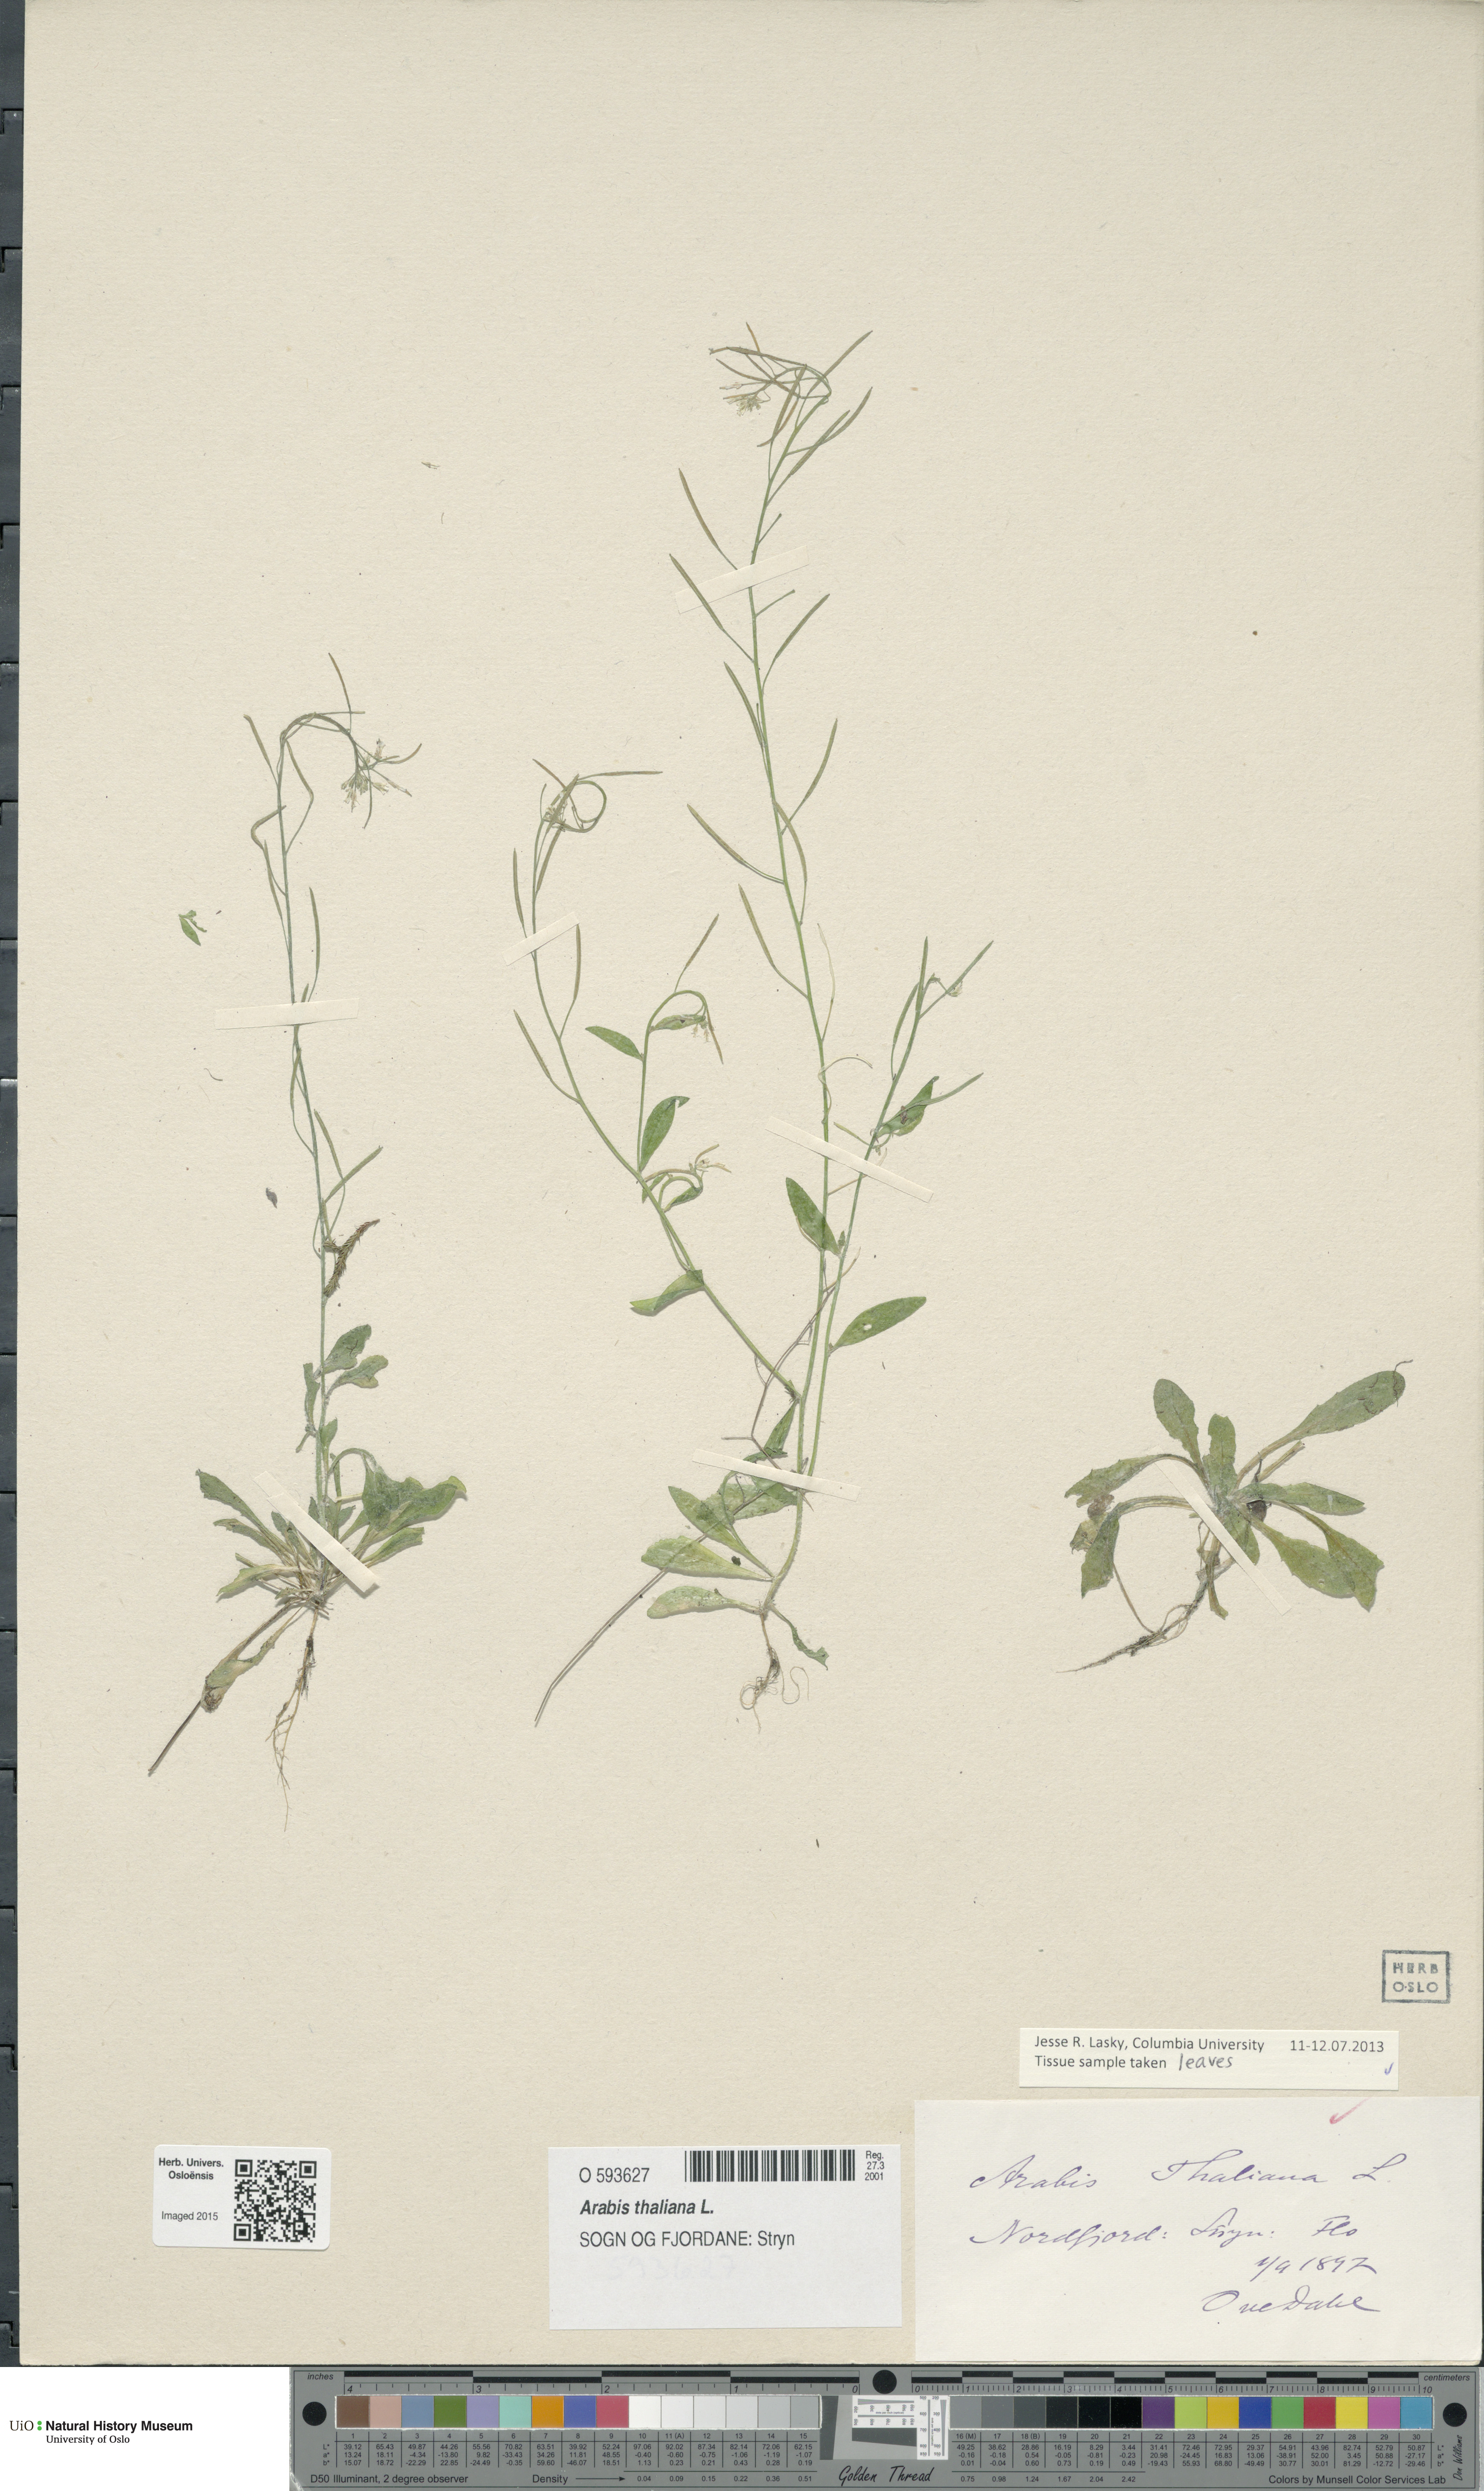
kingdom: Plantae
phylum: Tracheophyta
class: Magnoliopsida
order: Brassicales
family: Brassicaceae
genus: Arabidopsis
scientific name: Arabidopsis thaliana
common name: Thale cress
